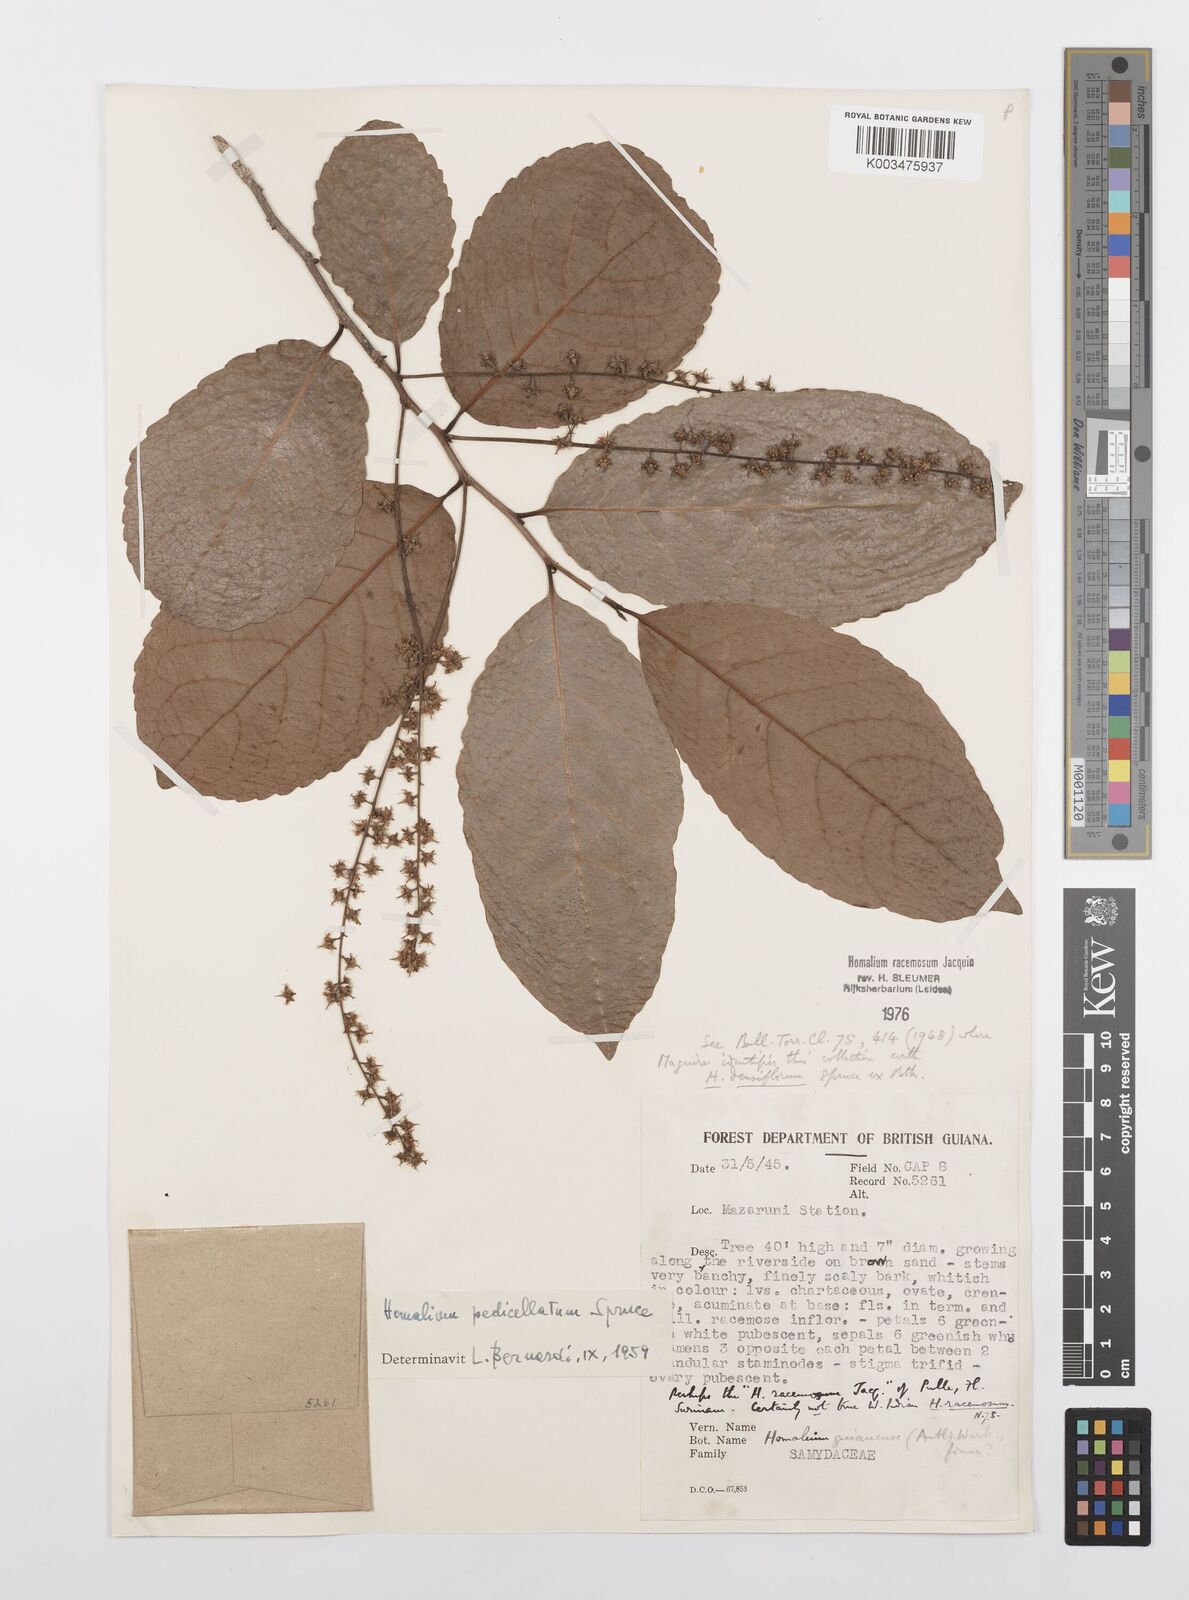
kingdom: Plantae
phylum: Tracheophyta
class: Magnoliopsida
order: Malpighiales
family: Salicaceae
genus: Homalium
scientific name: Homalium racemosum
